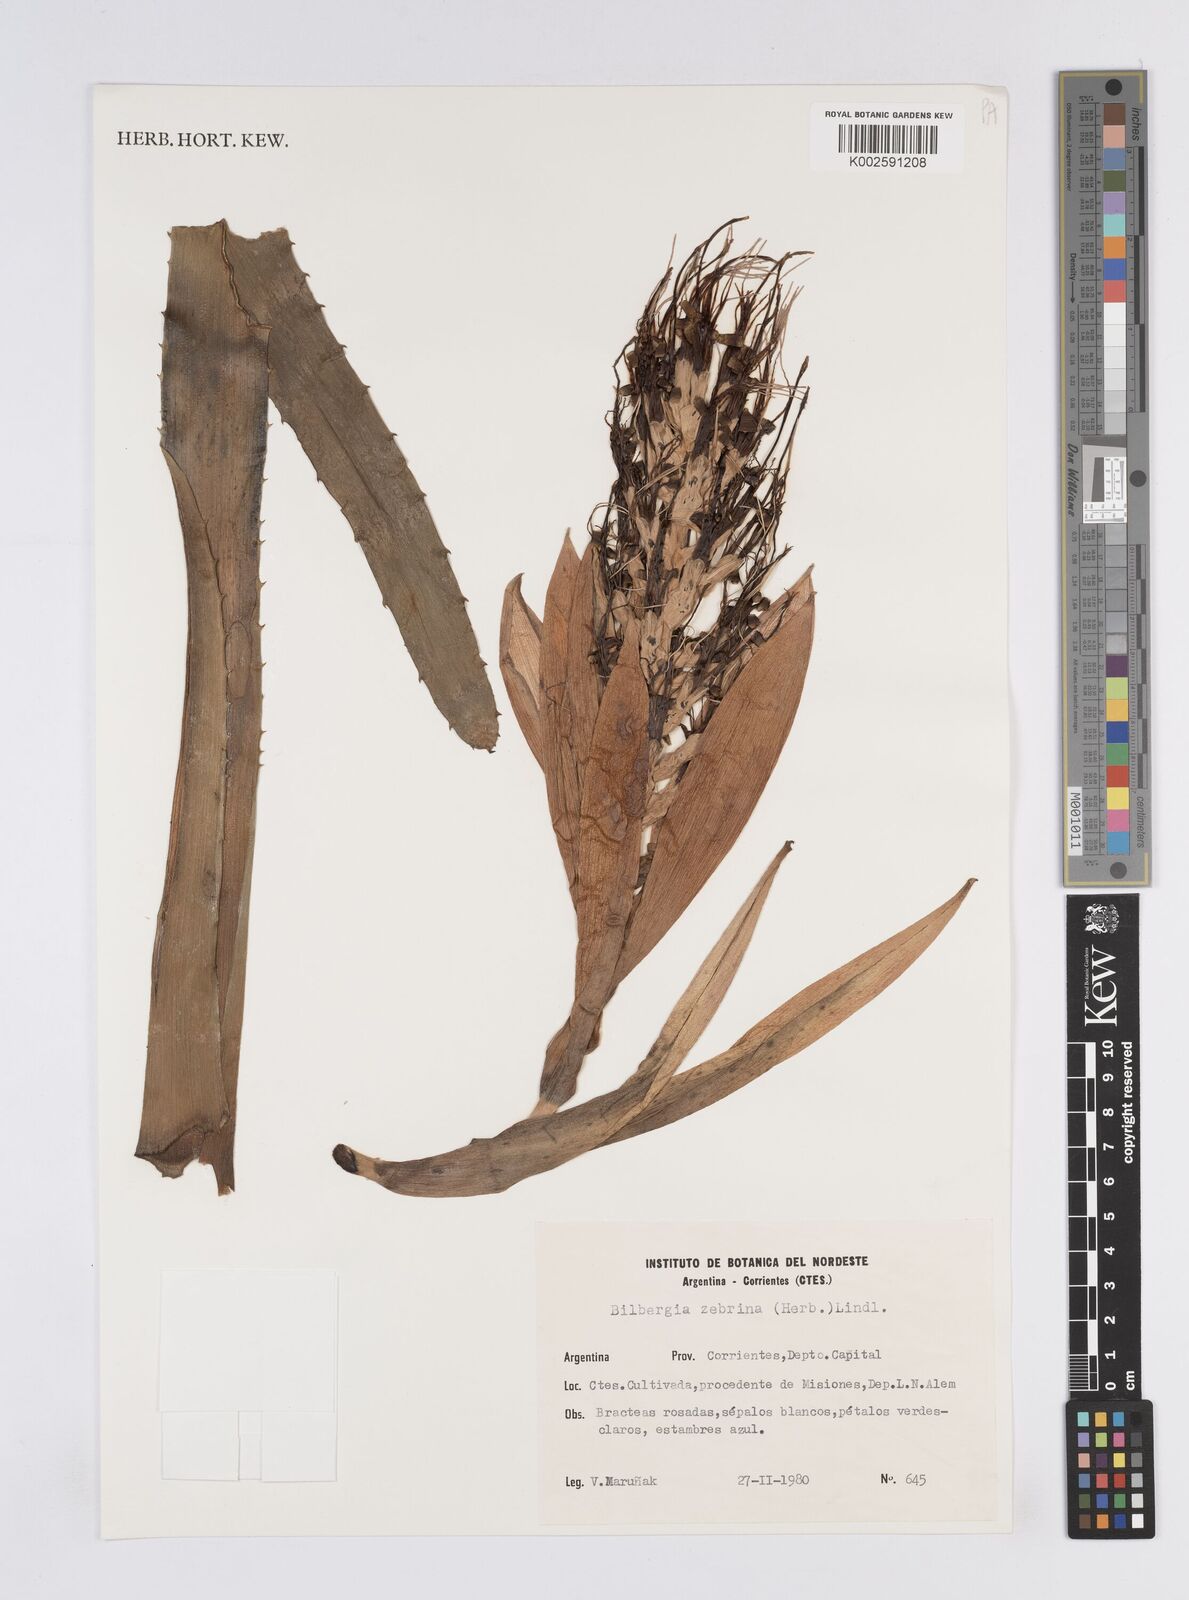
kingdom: Plantae
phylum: Tracheophyta
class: Liliopsida
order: Poales
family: Bromeliaceae
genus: Billbergia
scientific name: Billbergia zebrina
